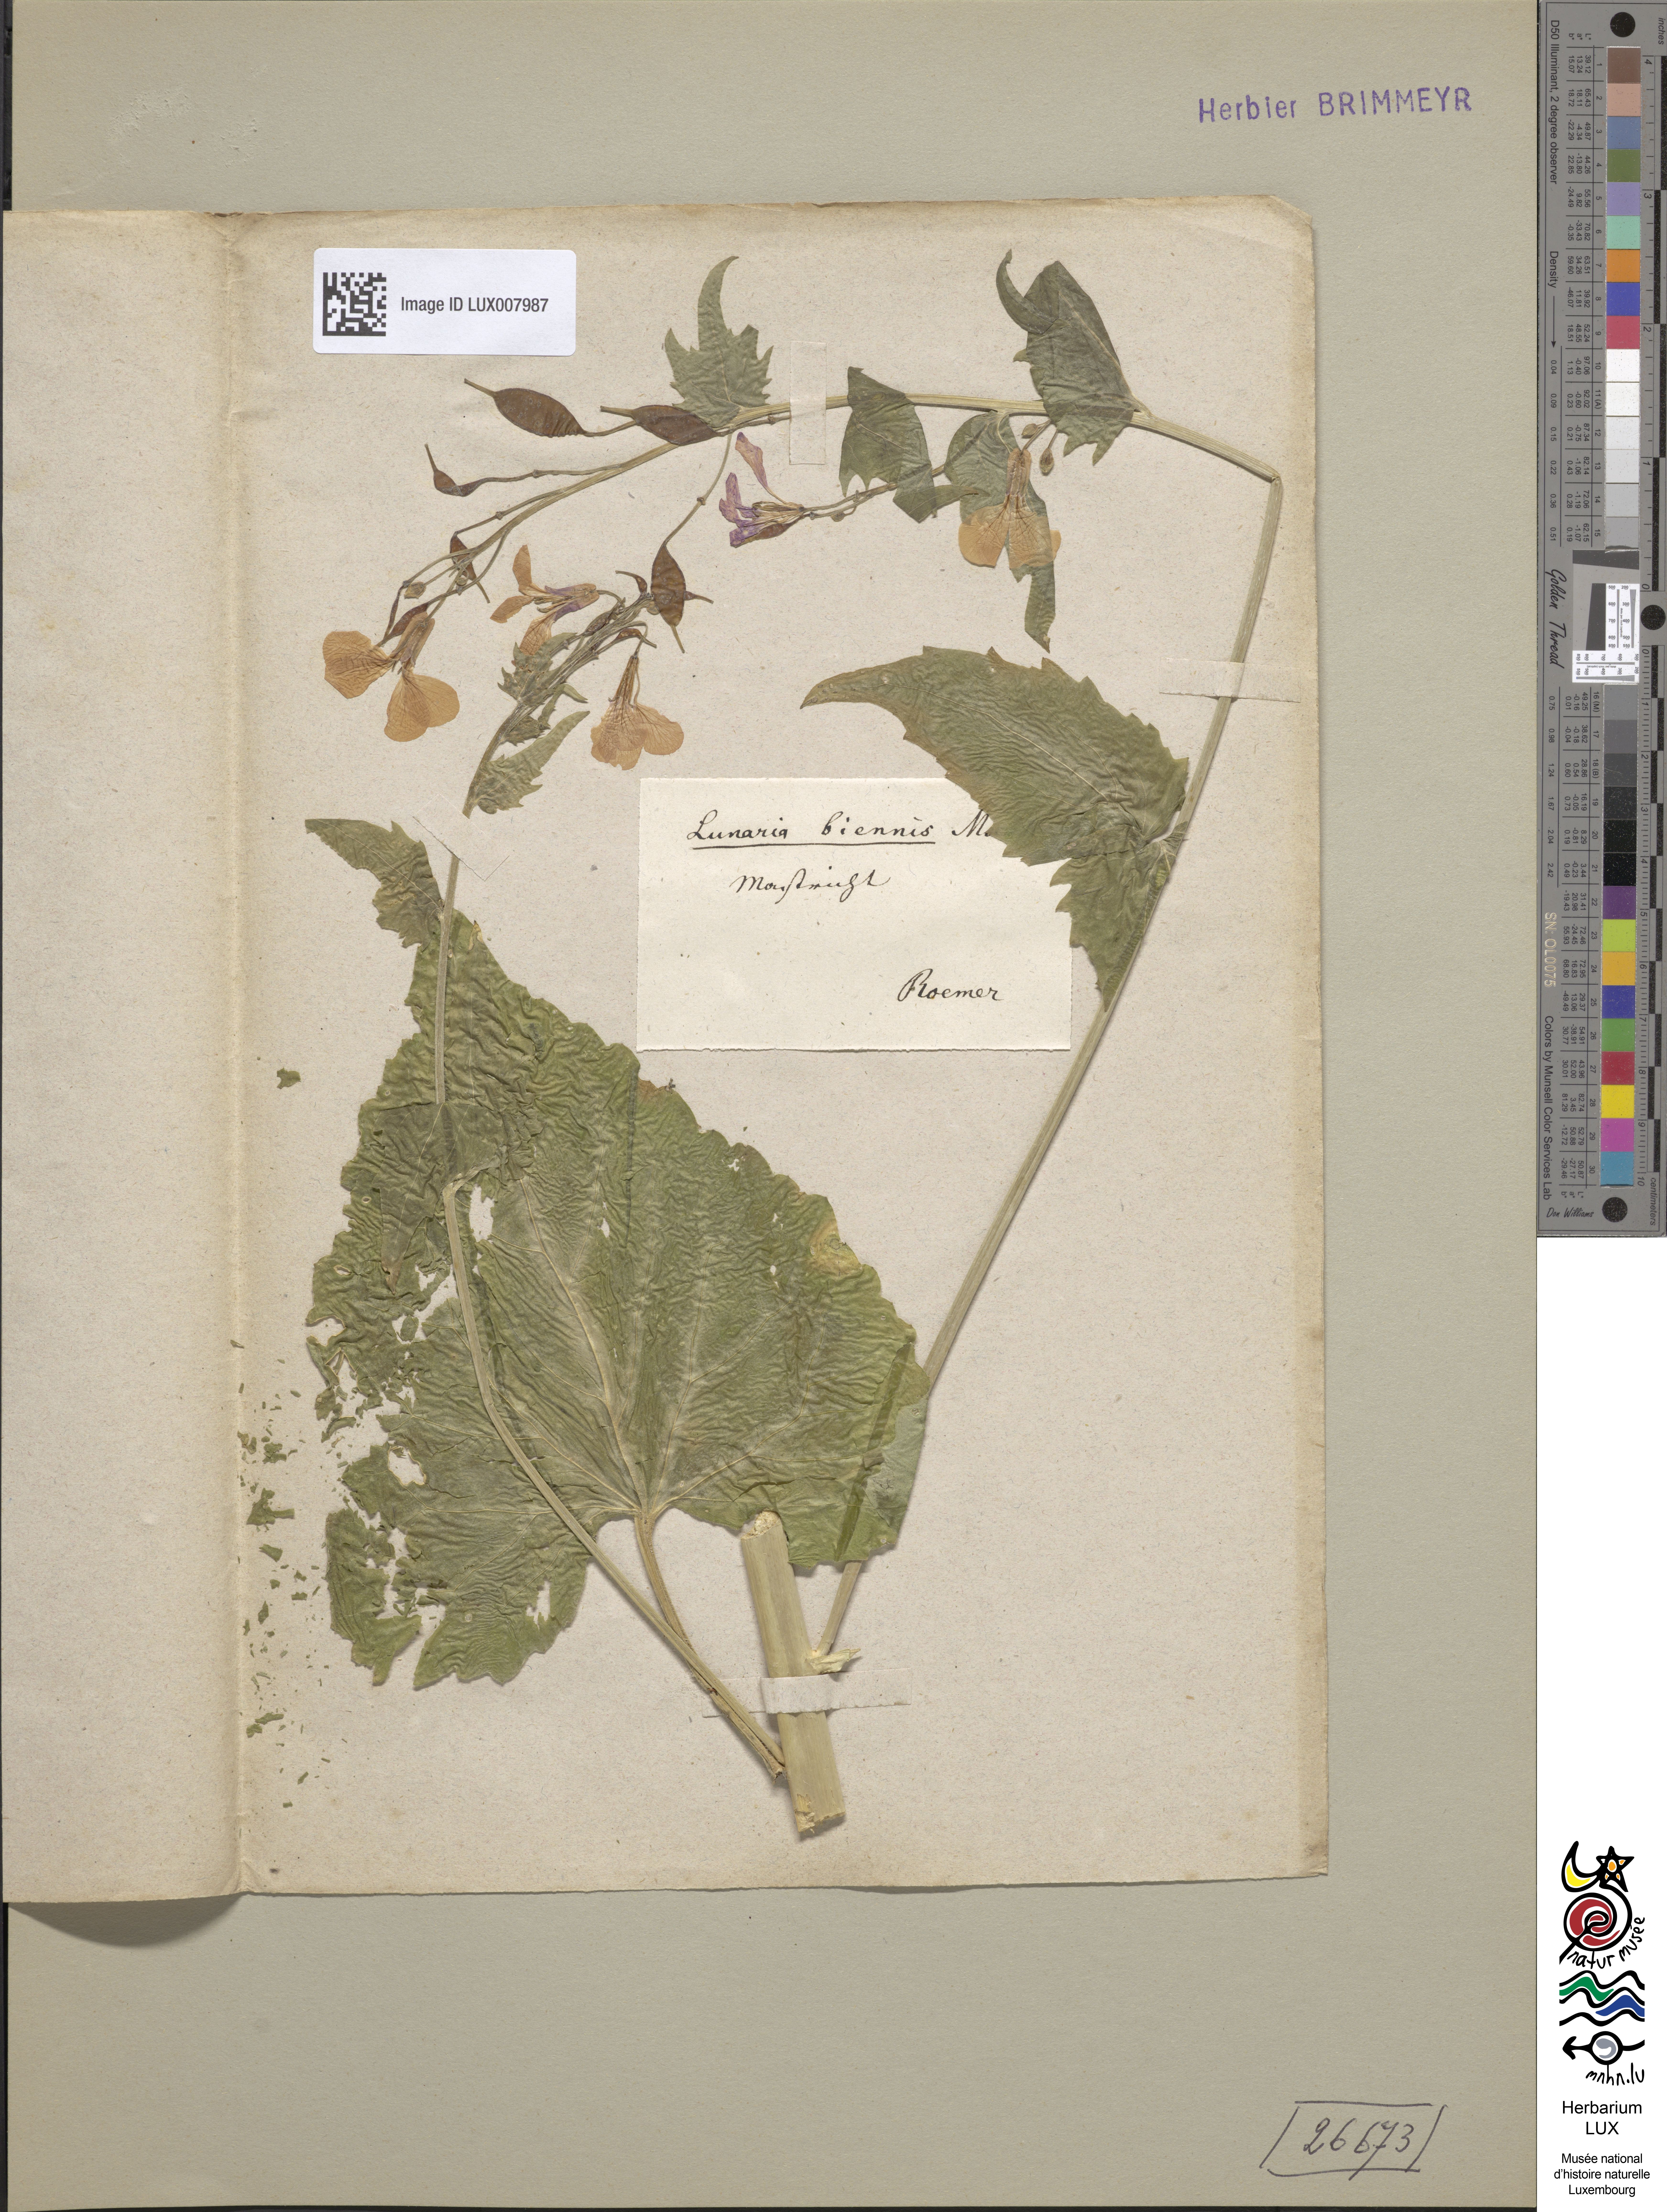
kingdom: Plantae
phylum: Tracheophyta
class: Magnoliopsida
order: Brassicales
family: Brassicaceae
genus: Lunaria
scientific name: Lunaria annua
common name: Honesty
